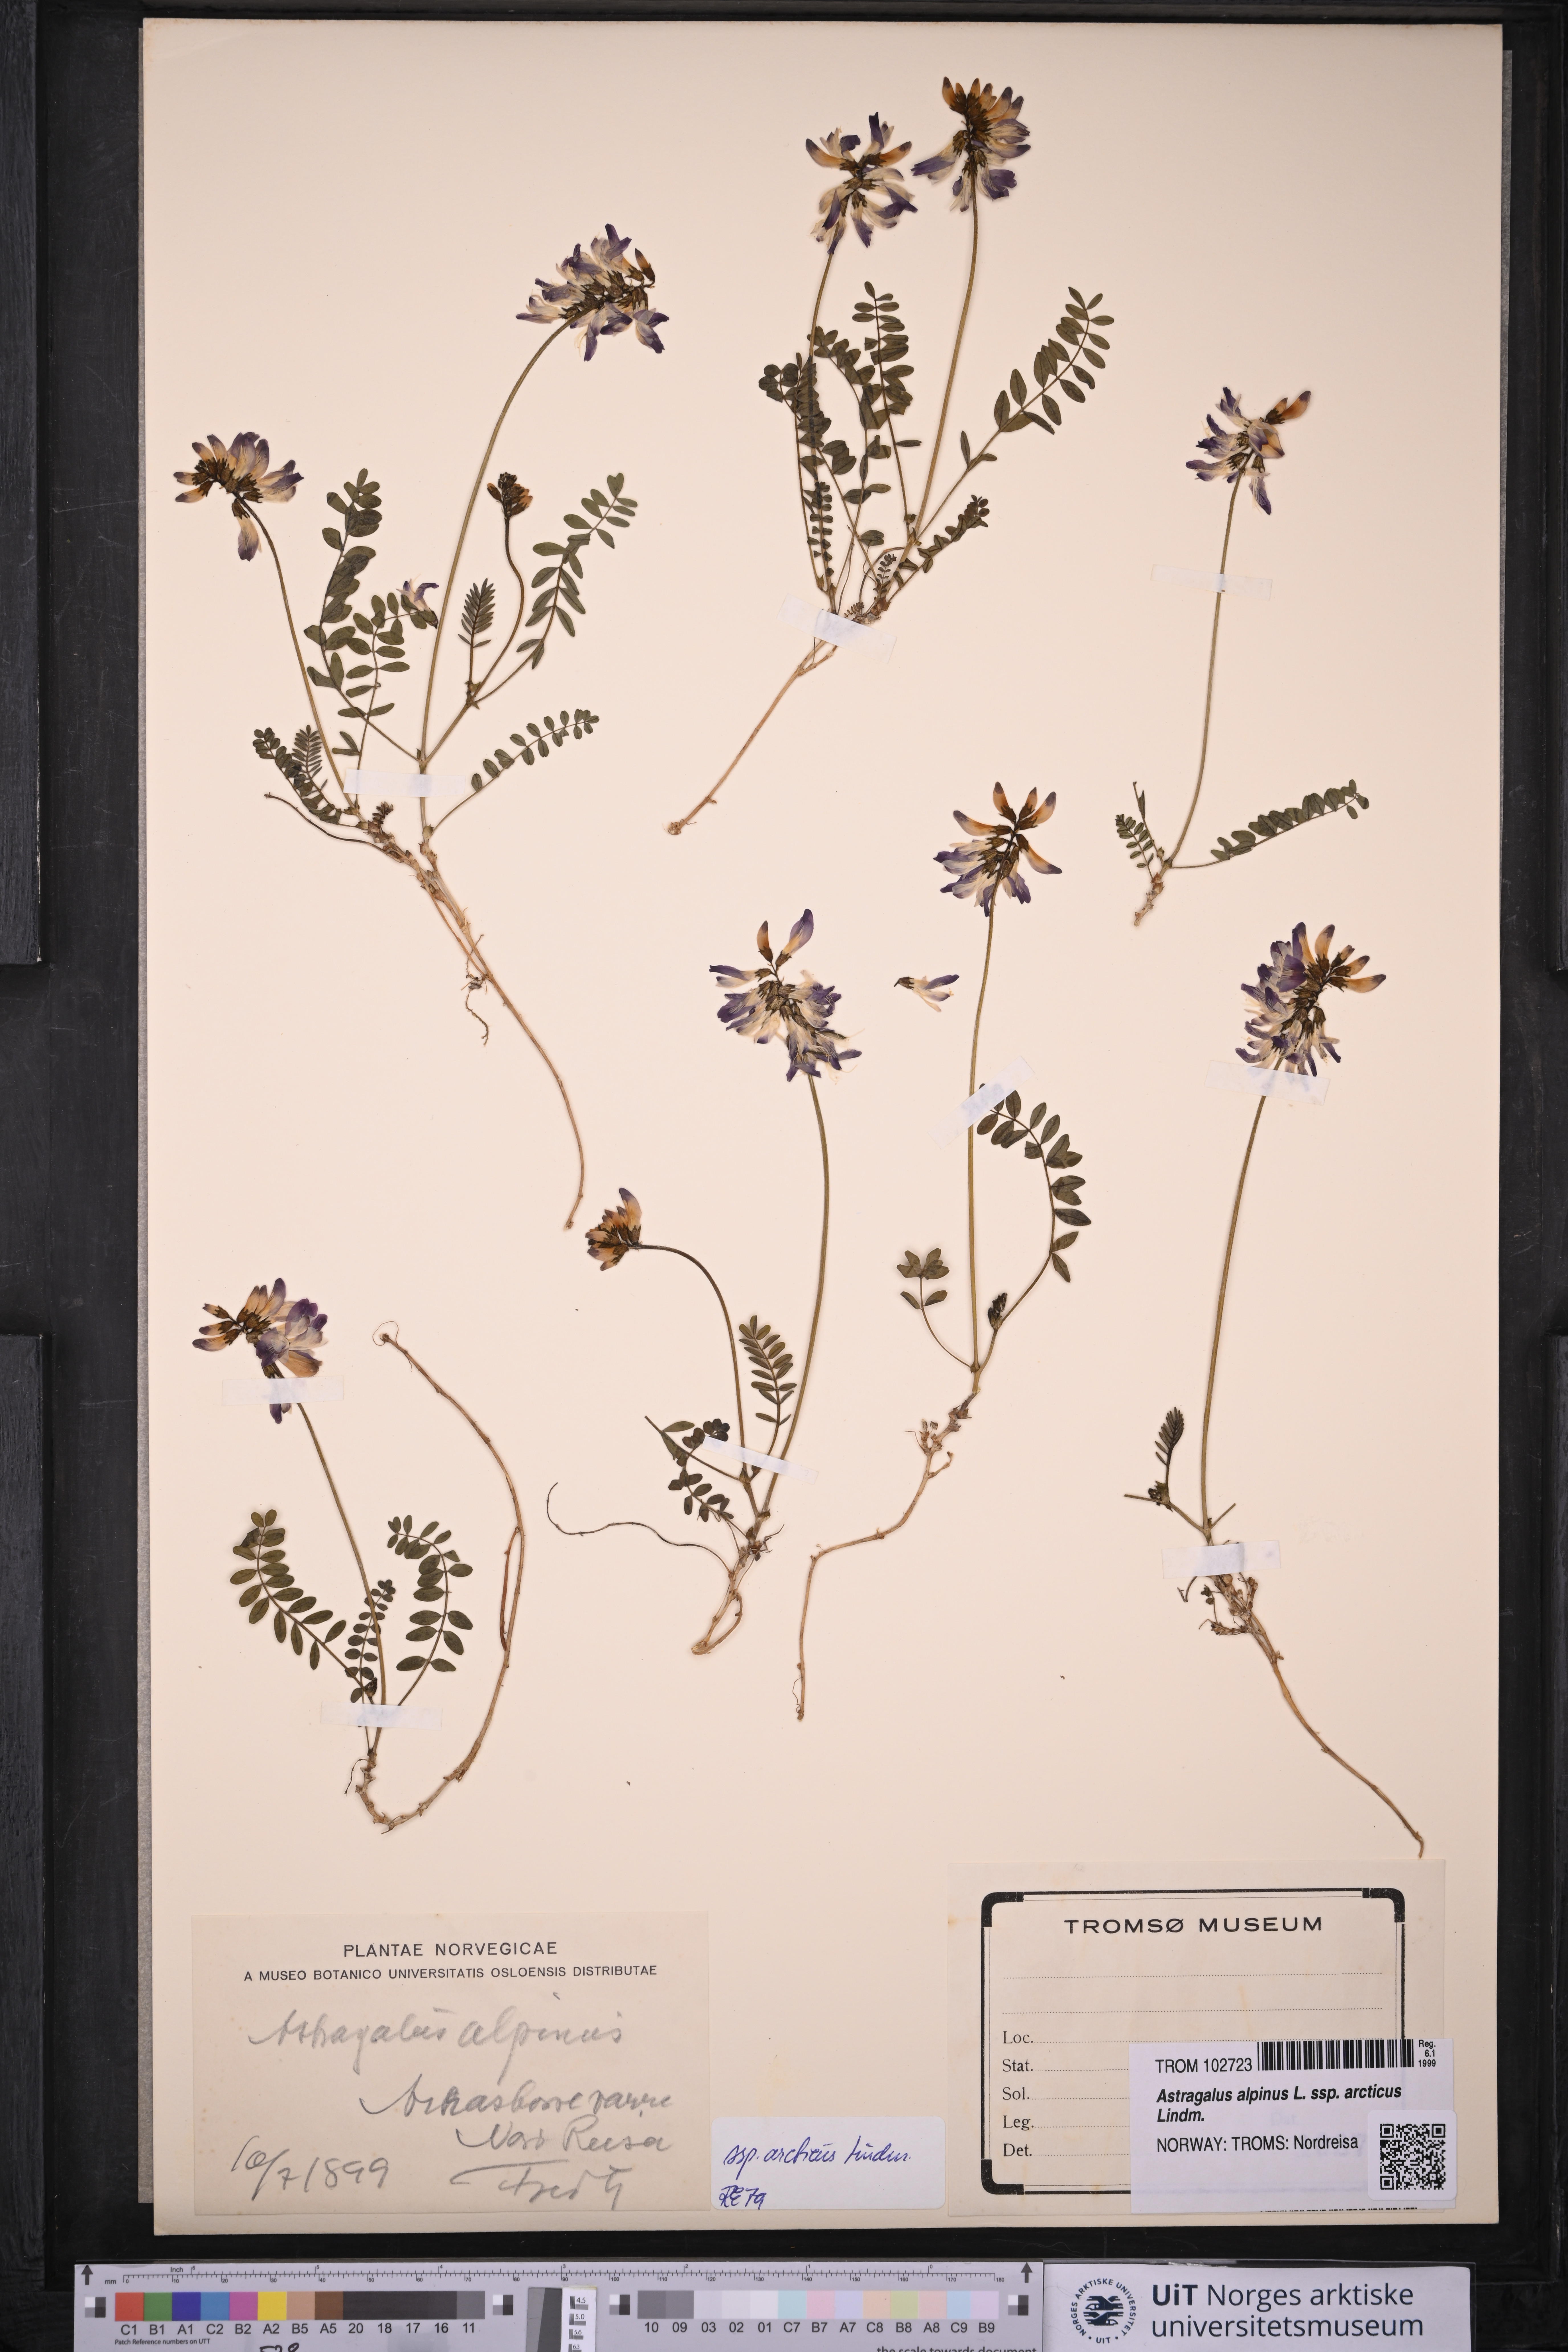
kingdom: Plantae
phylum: Tracheophyta
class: Magnoliopsida
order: Fabales
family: Fabaceae
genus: Astragalus
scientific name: Astragalus norvegicus
